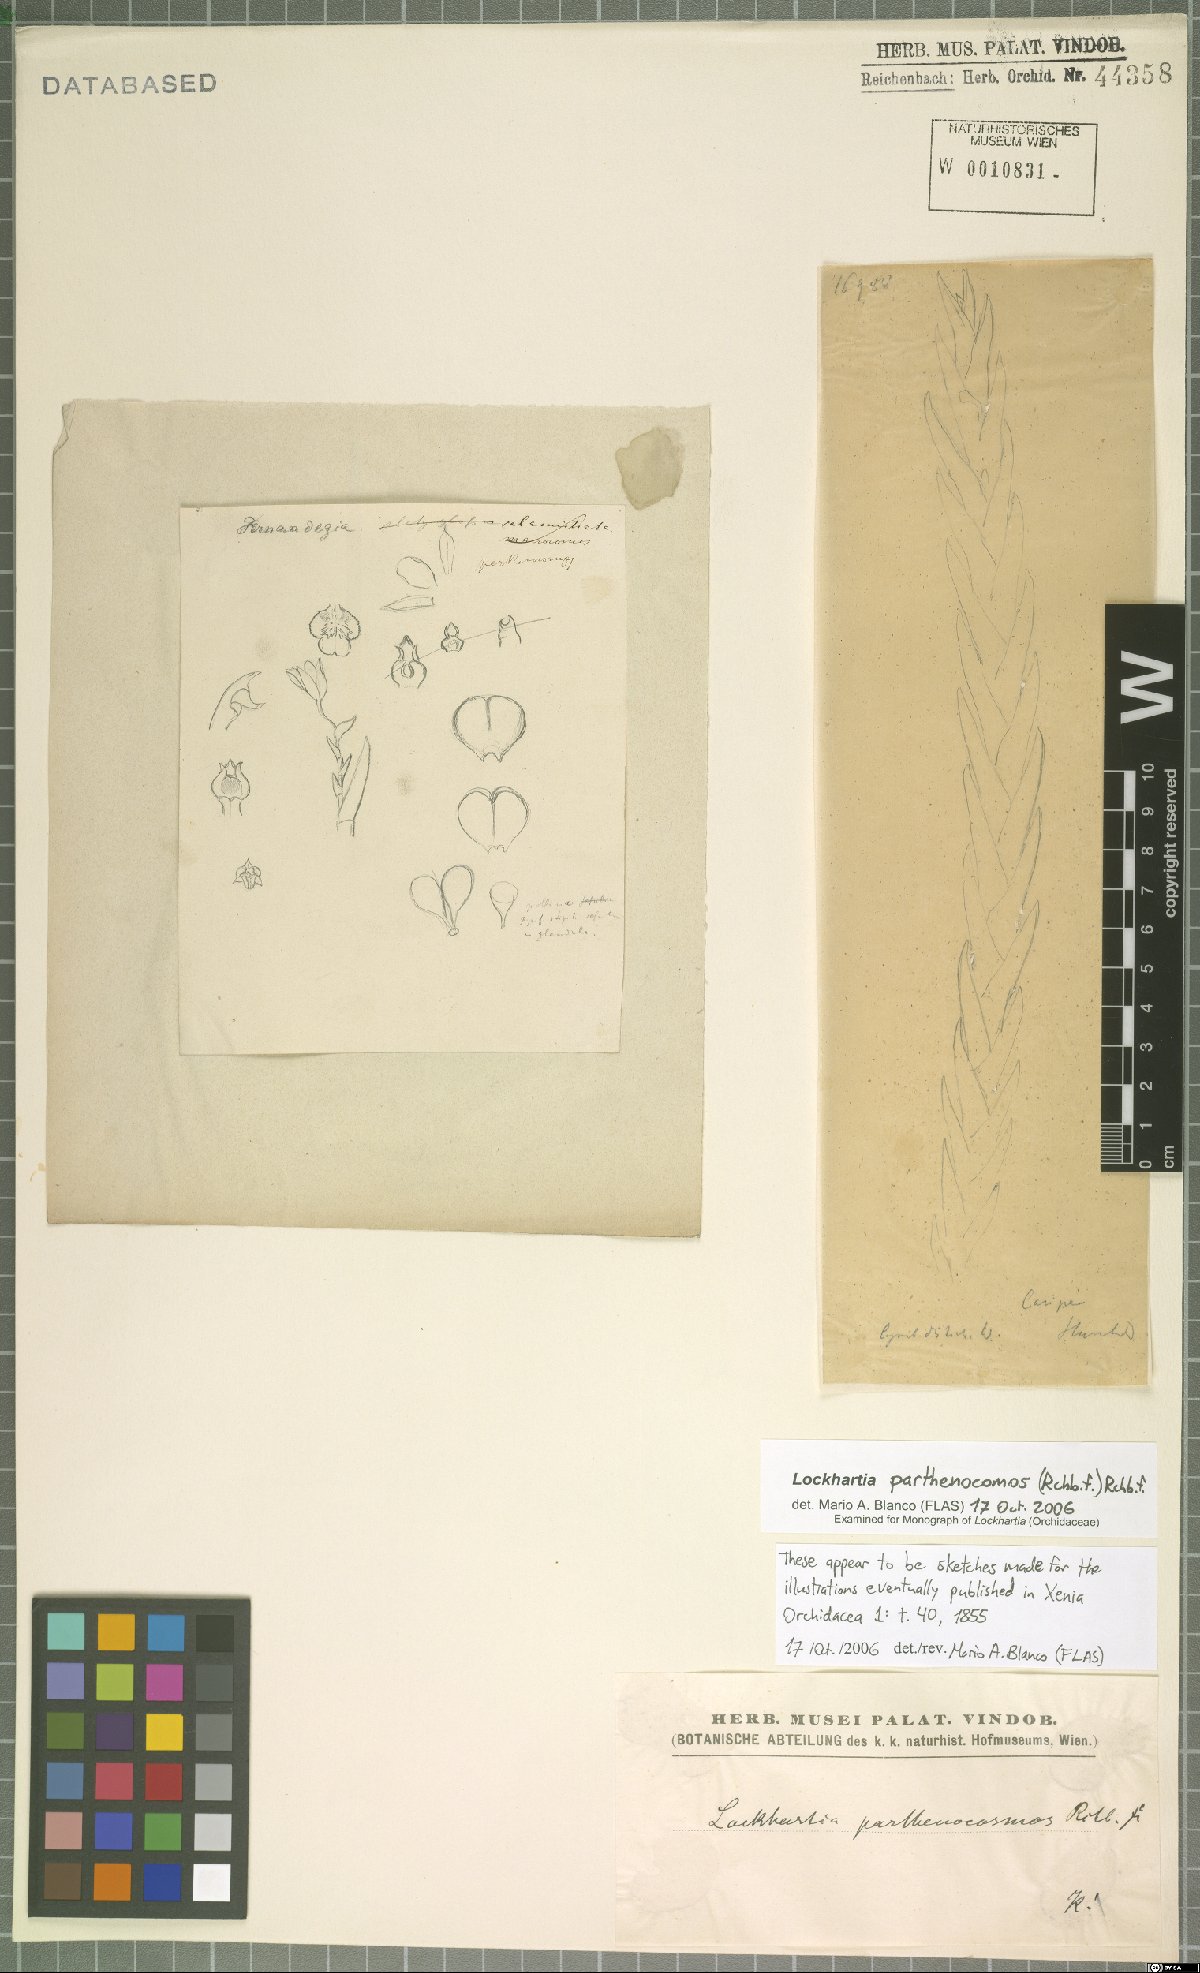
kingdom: Plantae
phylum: Tracheophyta
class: Liliopsida
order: Asparagales
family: Orchidaceae
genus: Lockhartia
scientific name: Lockhartia parthenocomos
